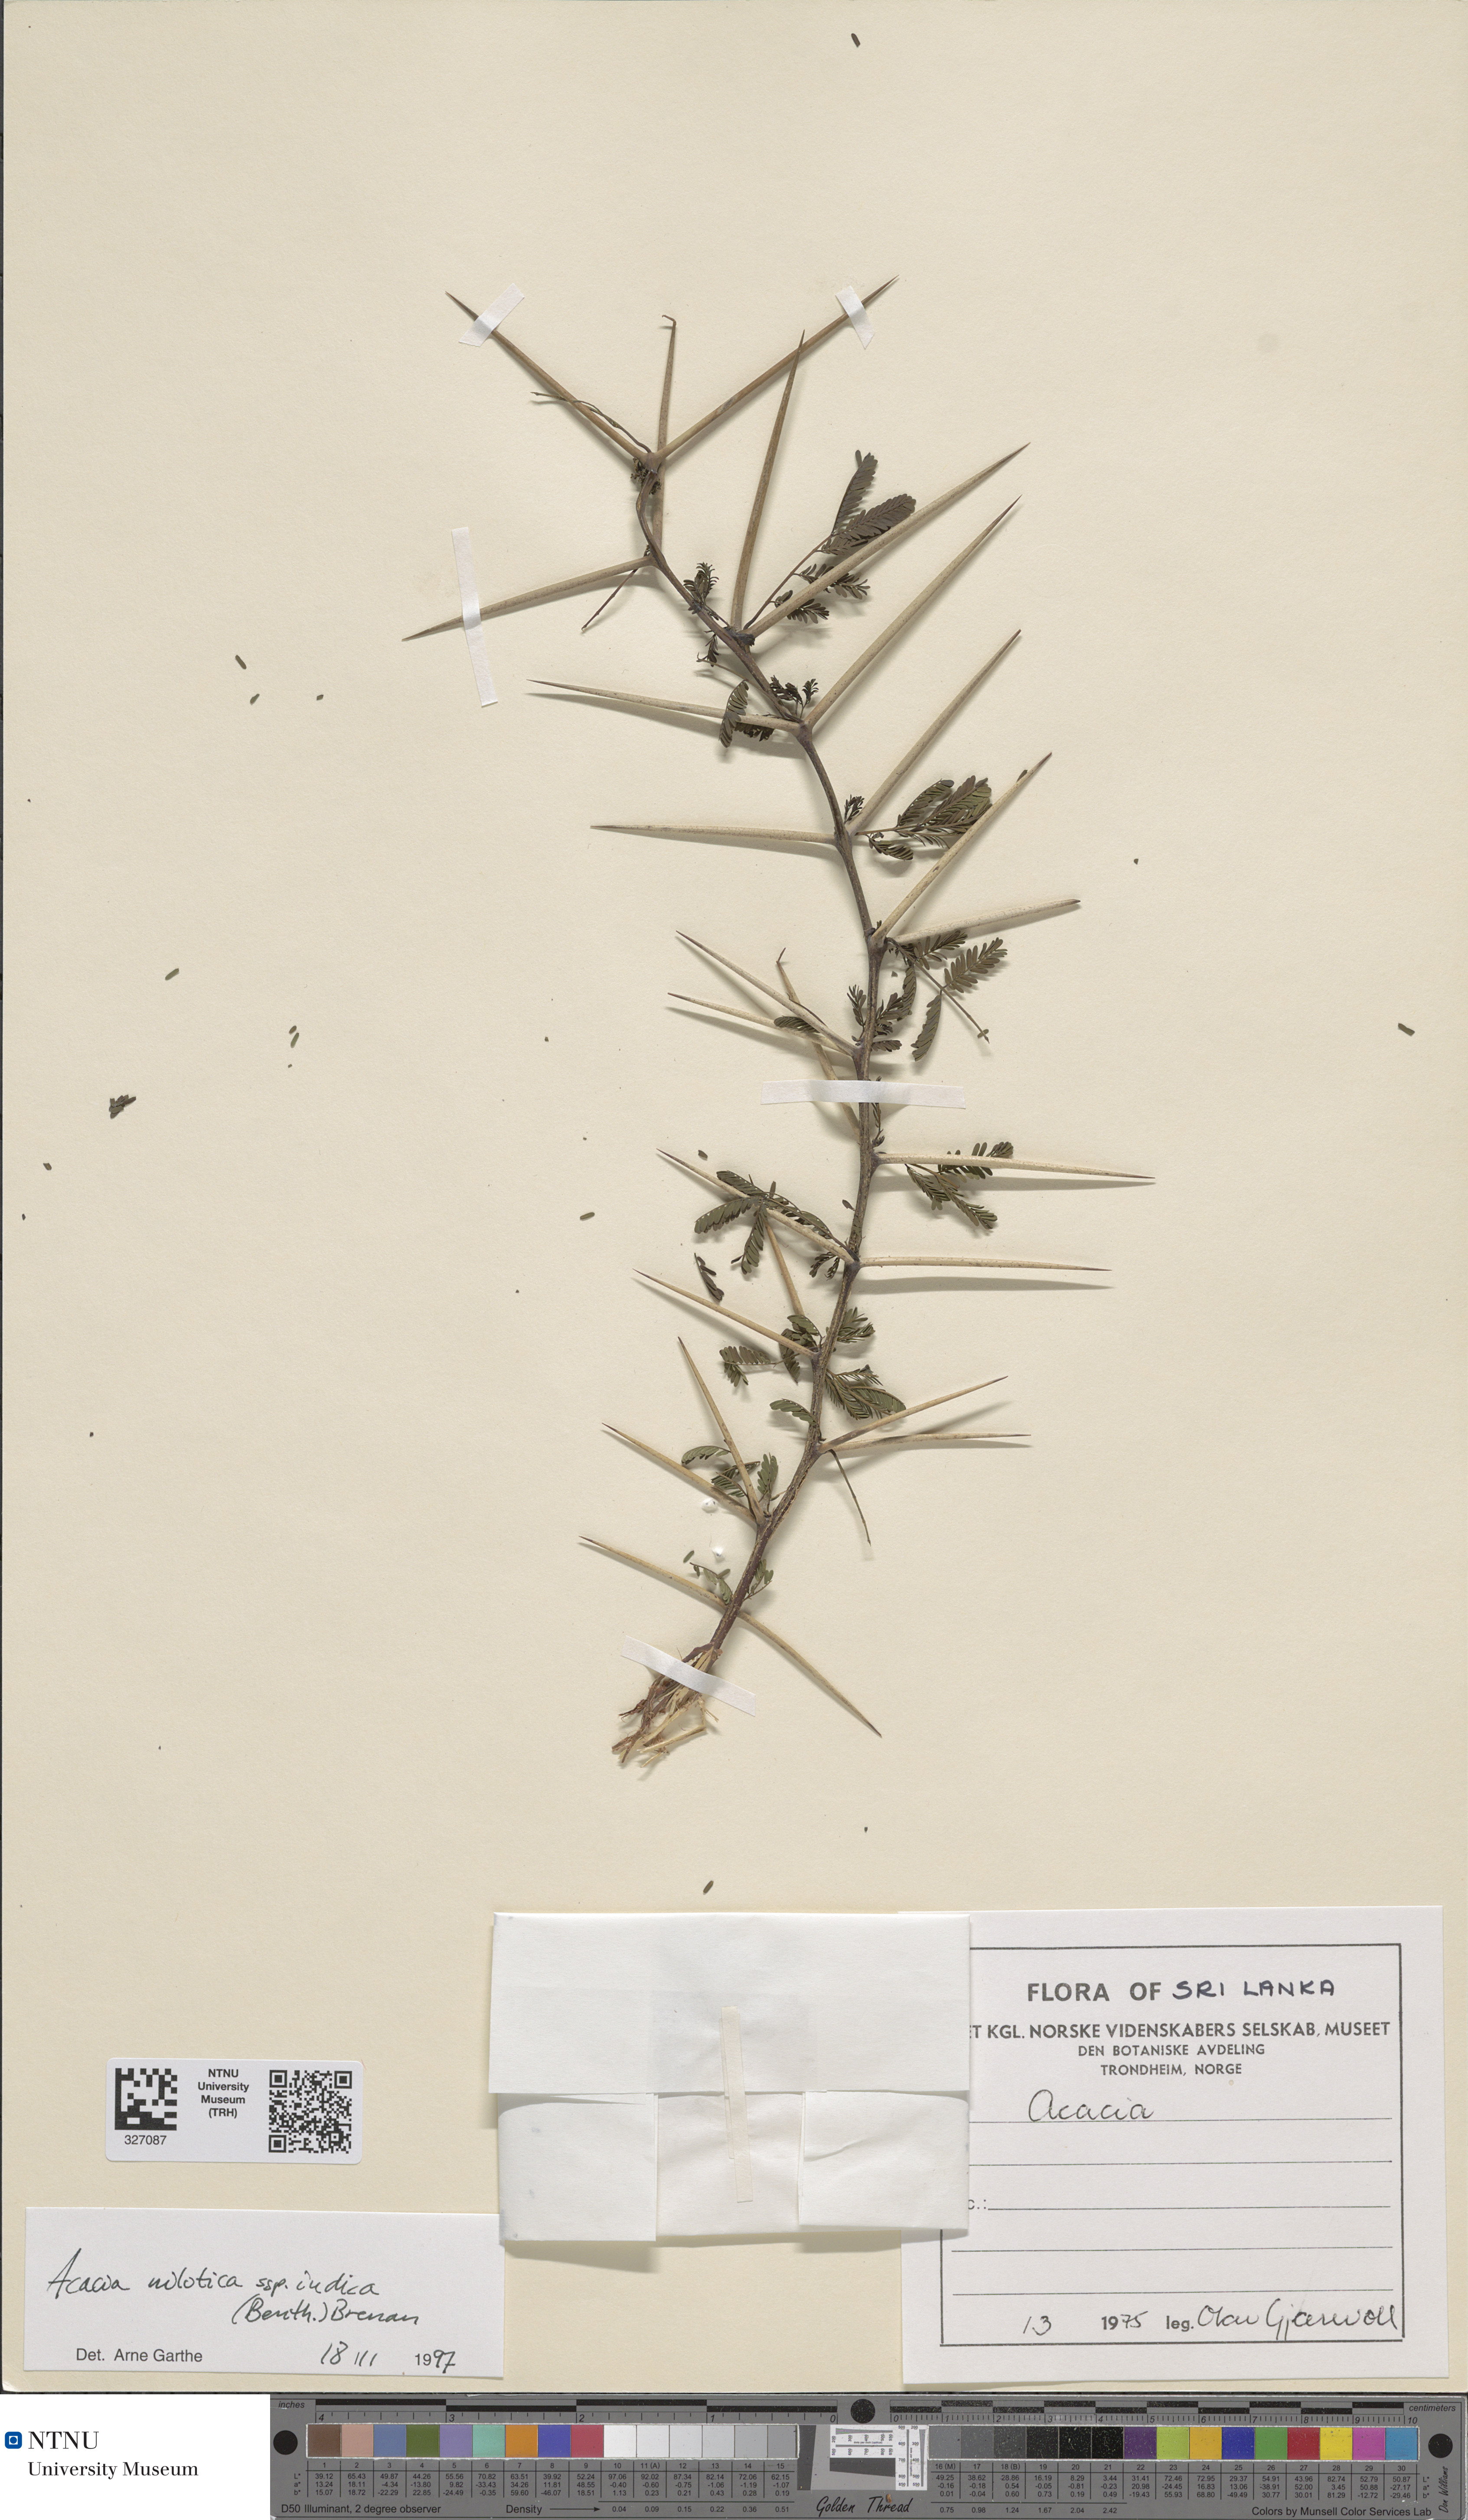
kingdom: Plantae
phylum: Tracheophyta
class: Magnoliopsida
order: Fabales
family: Fabaceae
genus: Vachellia
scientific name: Vachellia nilotica
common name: Arabic gumtree
